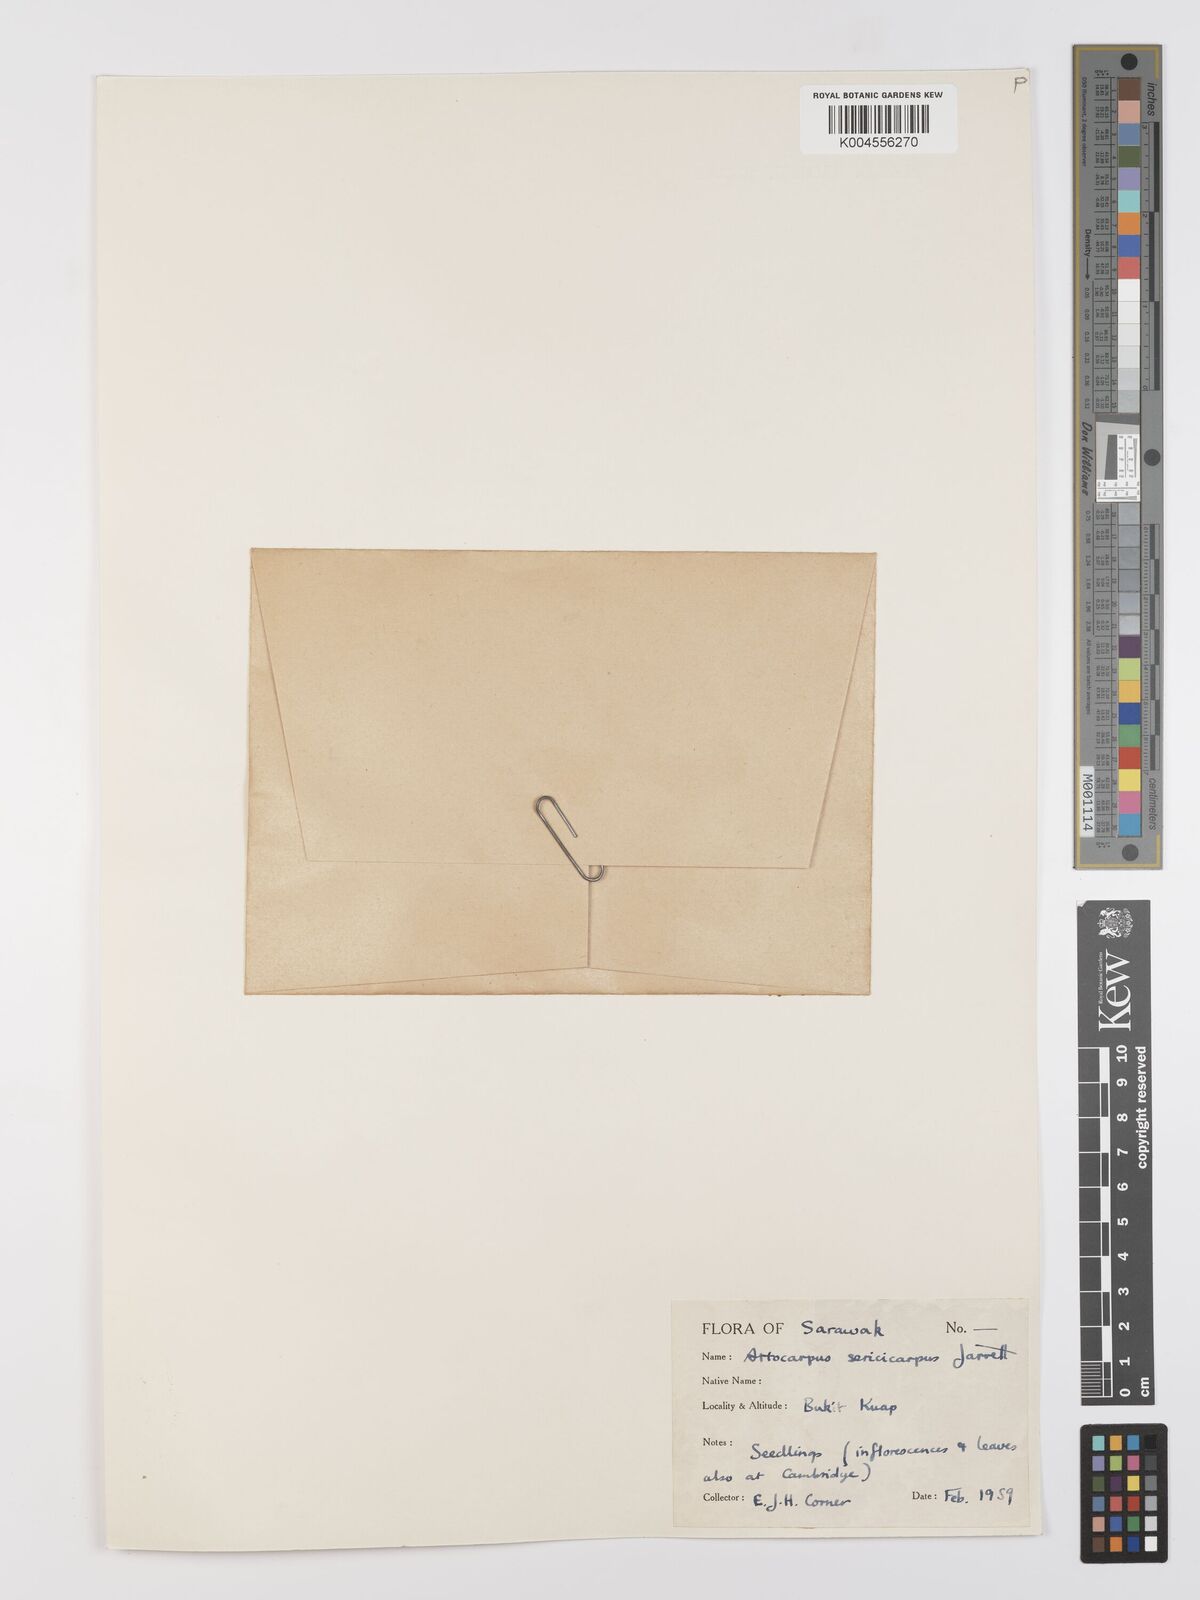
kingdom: Plantae
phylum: Tracheophyta
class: Magnoliopsida
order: Rosales
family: Moraceae
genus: Artocarpus
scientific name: Artocarpus sericicarpus
